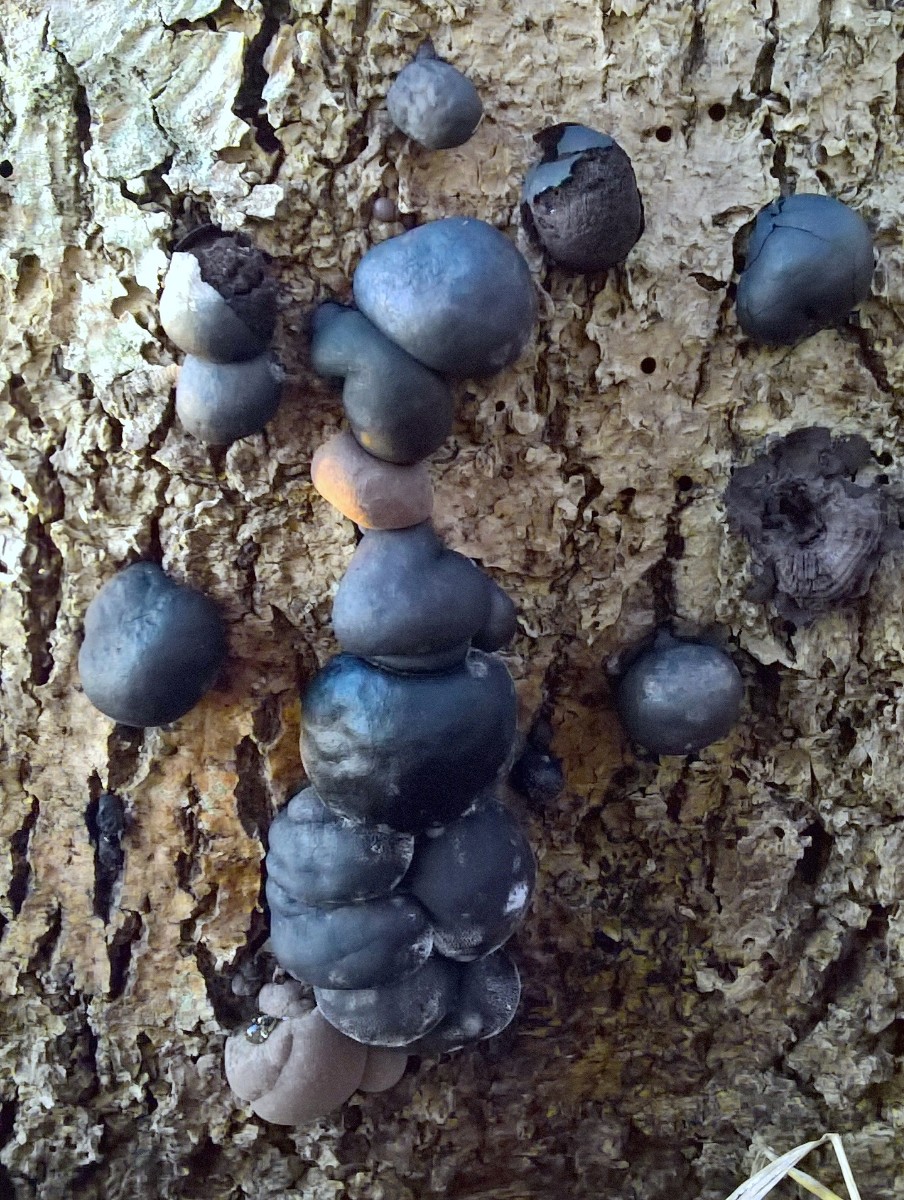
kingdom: Fungi
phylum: Ascomycota
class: Sordariomycetes
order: Xylariales
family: Hypoxylaceae
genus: Daldinia
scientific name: Daldinia concentrica
